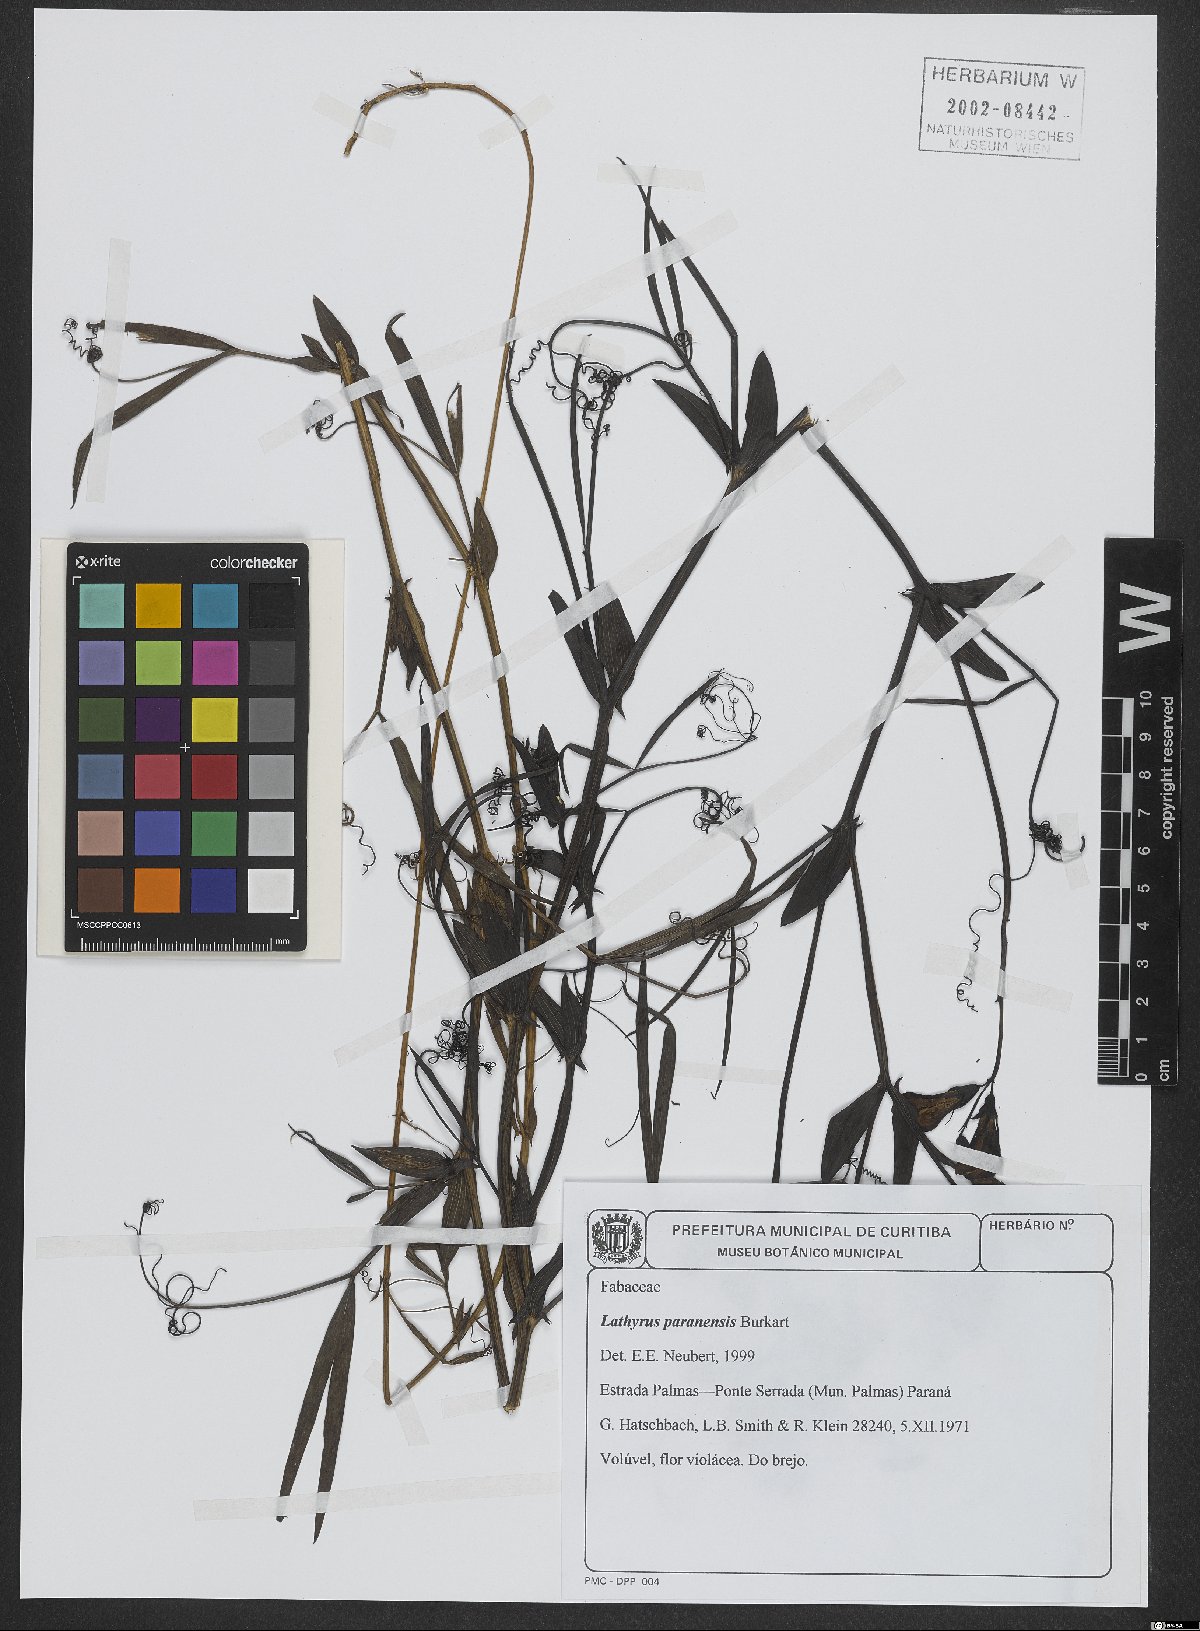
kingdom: Plantae
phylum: Tracheophyta
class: Magnoliopsida
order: Fabales
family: Fabaceae
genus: Lathyrus
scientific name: Lathyrus paranensis
